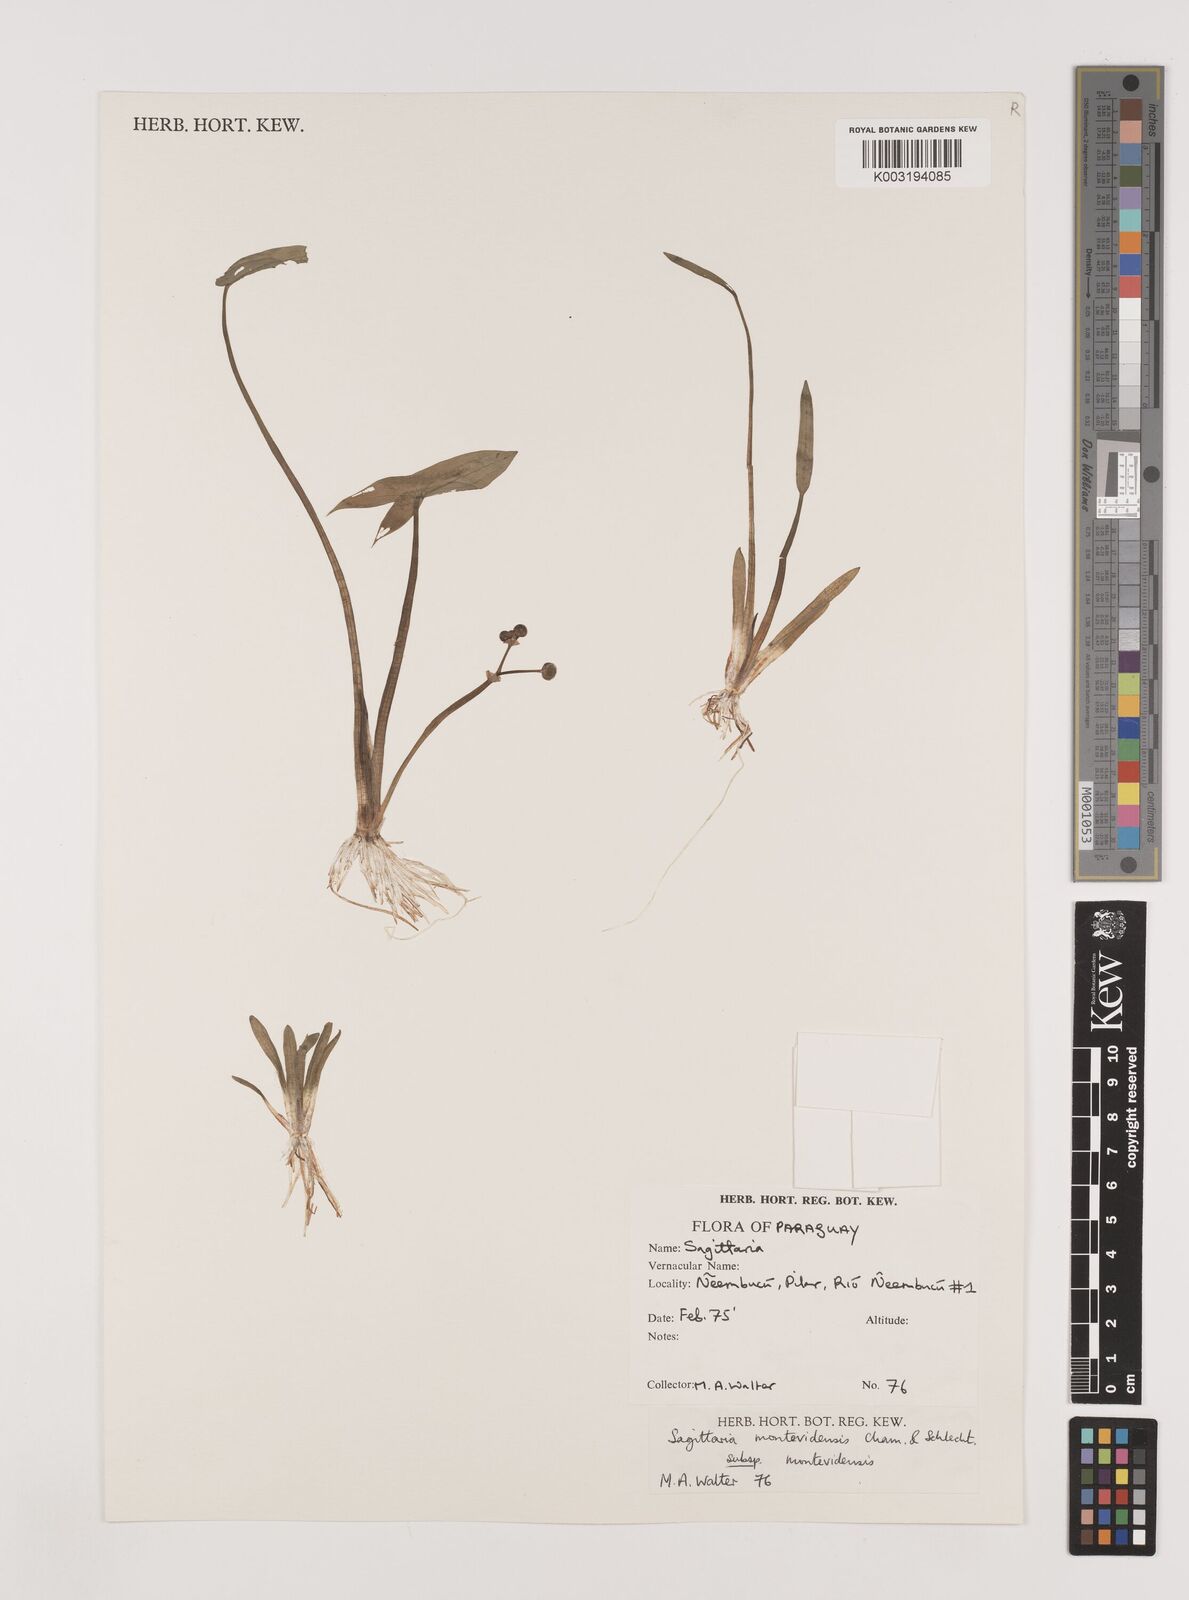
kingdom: Plantae
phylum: Tracheophyta
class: Liliopsida
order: Alismatales
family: Alismataceae
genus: Sagittaria
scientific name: Sagittaria montevidensis
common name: Giant arrowhead
